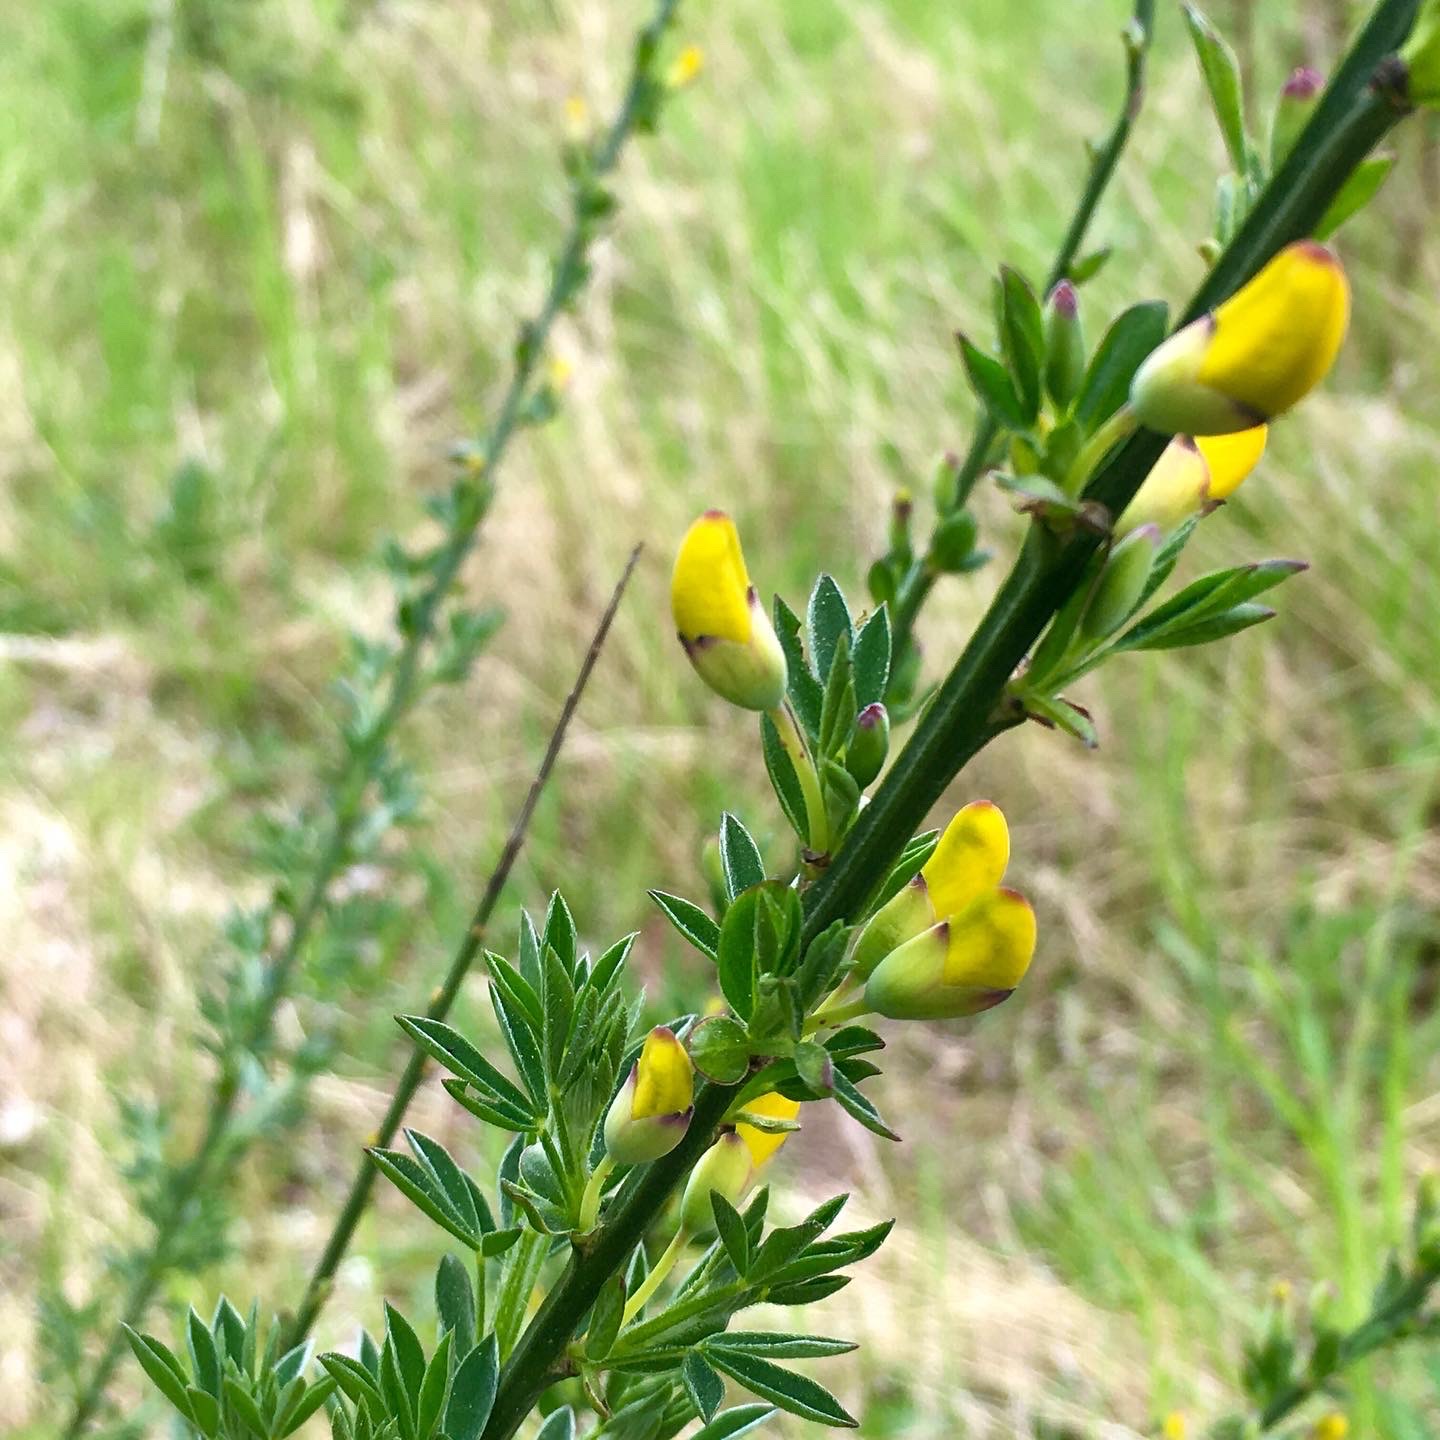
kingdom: Plantae
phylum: Tracheophyta
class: Magnoliopsida
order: Fabales
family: Fabaceae
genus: Cytisus
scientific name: Cytisus scoparius
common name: Almindelig gyvel
